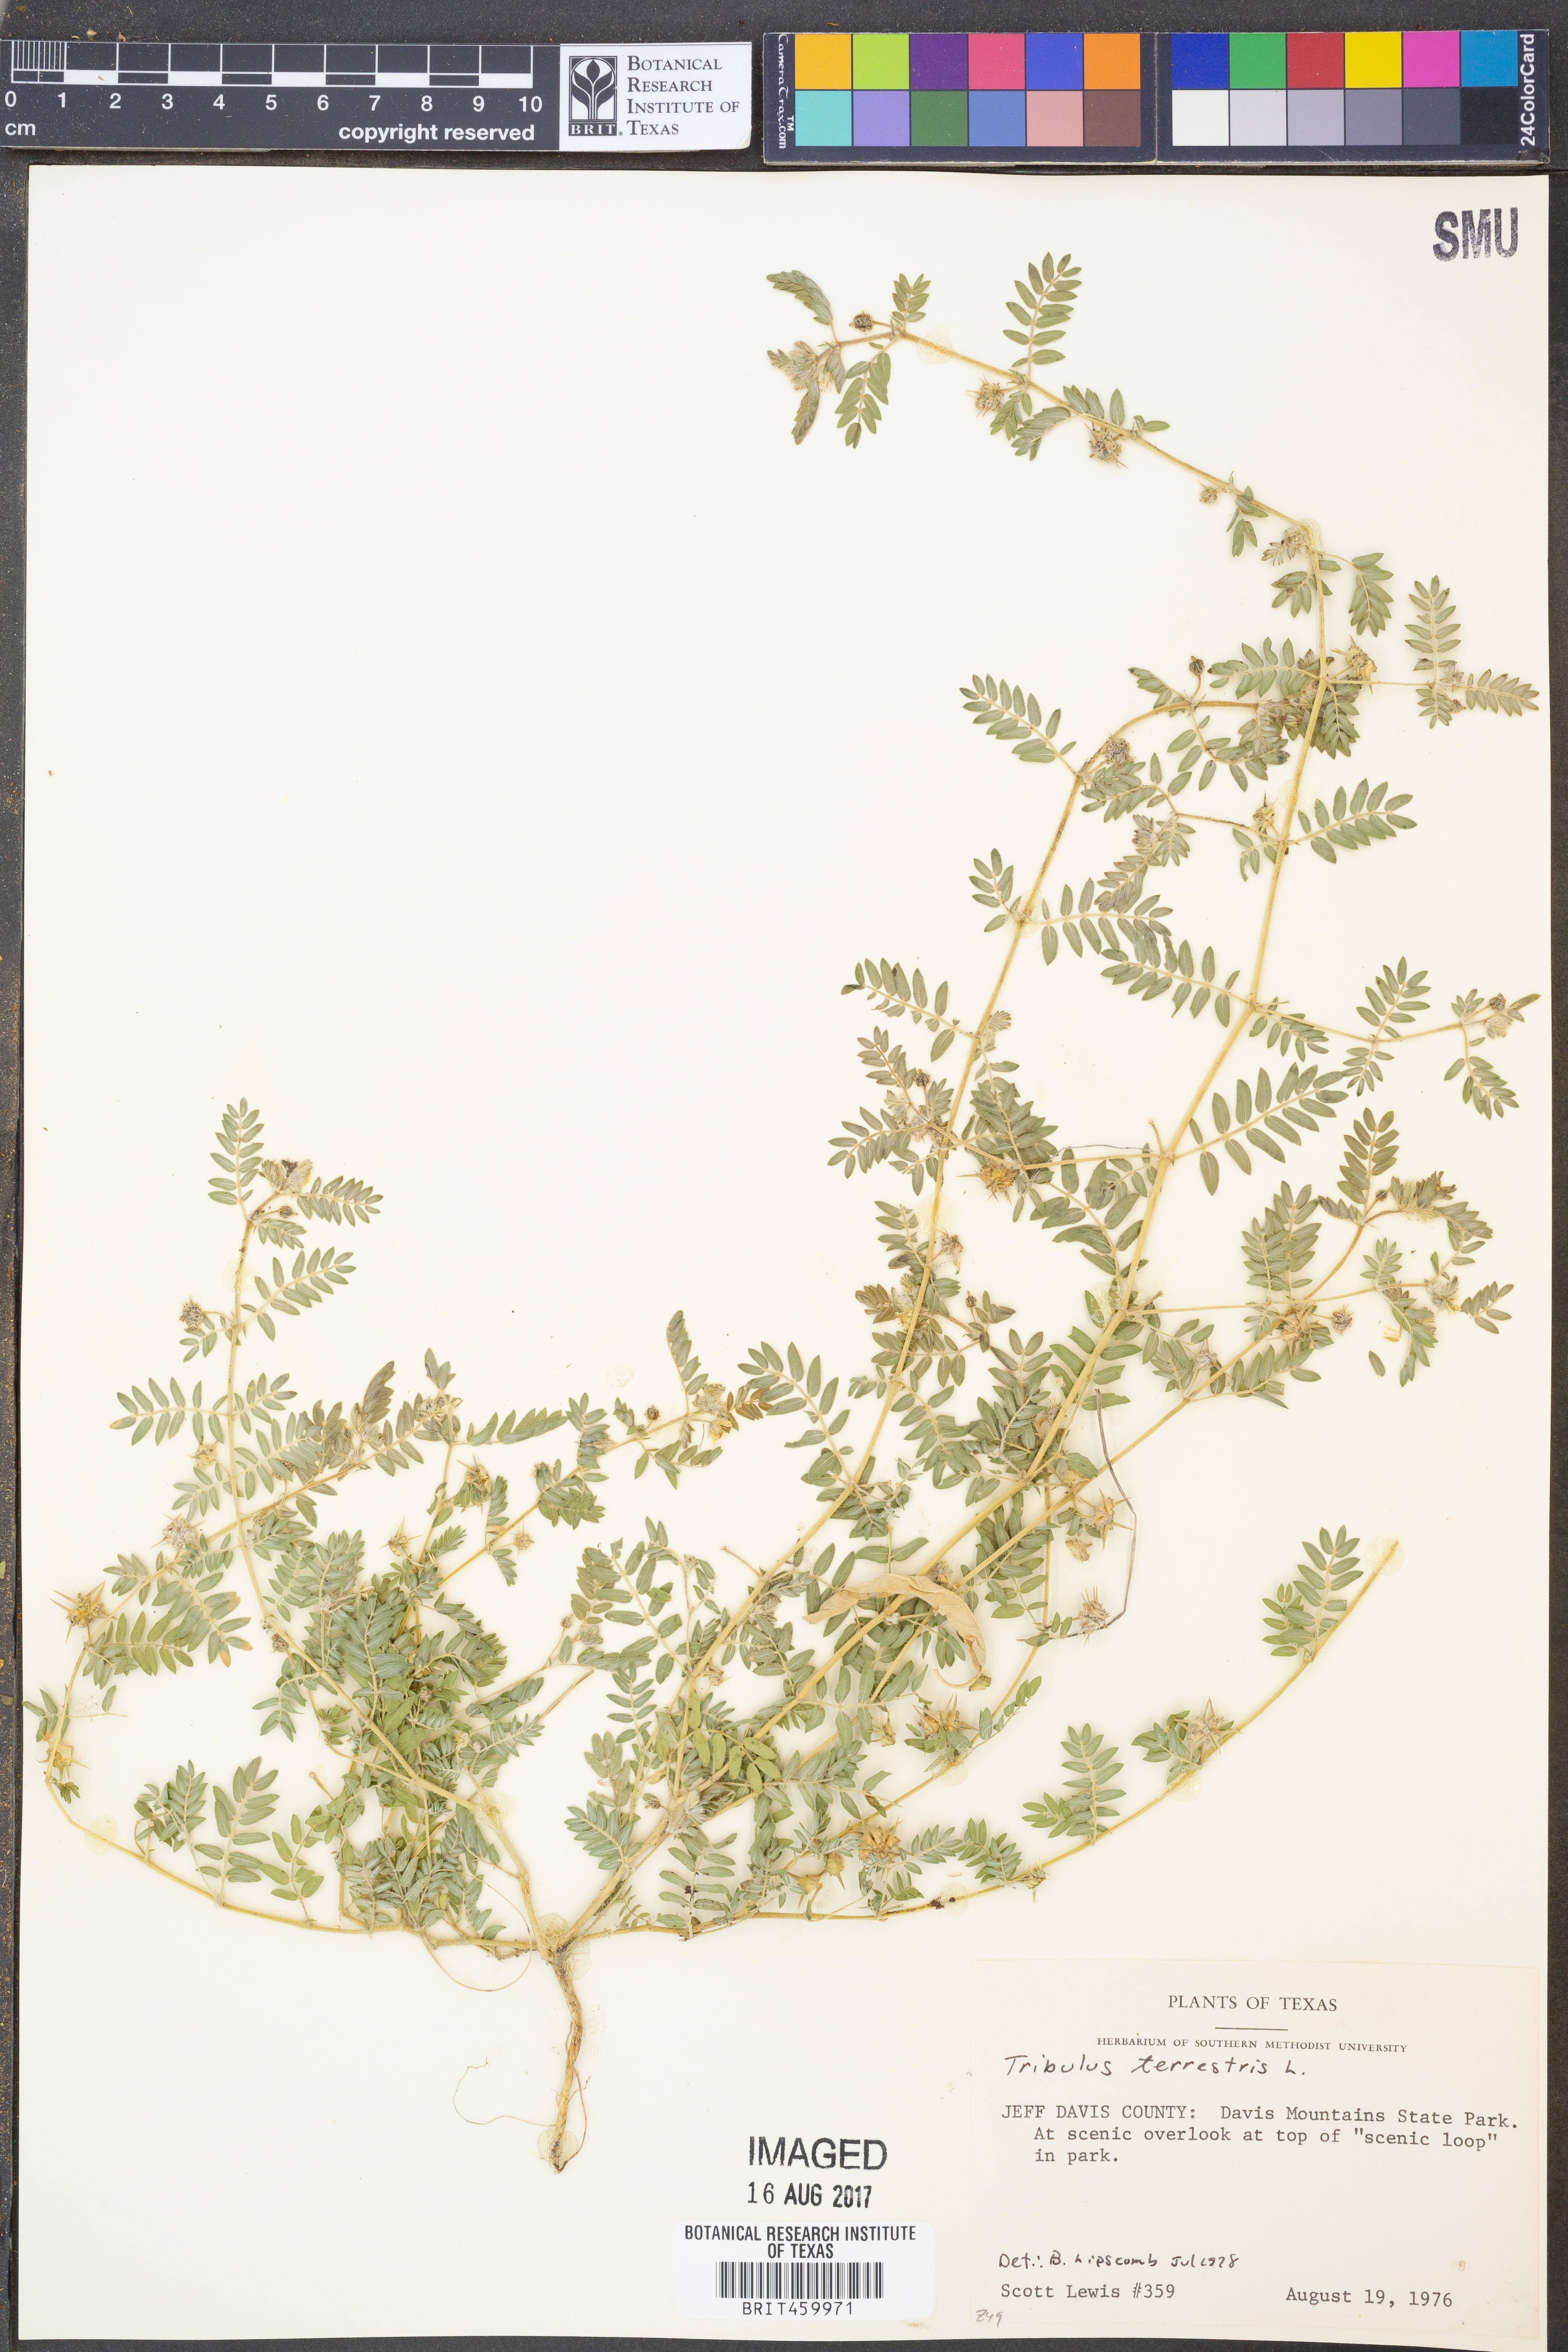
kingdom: Plantae
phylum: Tracheophyta
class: Magnoliopsida
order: Zygophyllales
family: Zygophyllaceae
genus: Tribulus
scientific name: Tribulus terrestris
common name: Puncturevine
